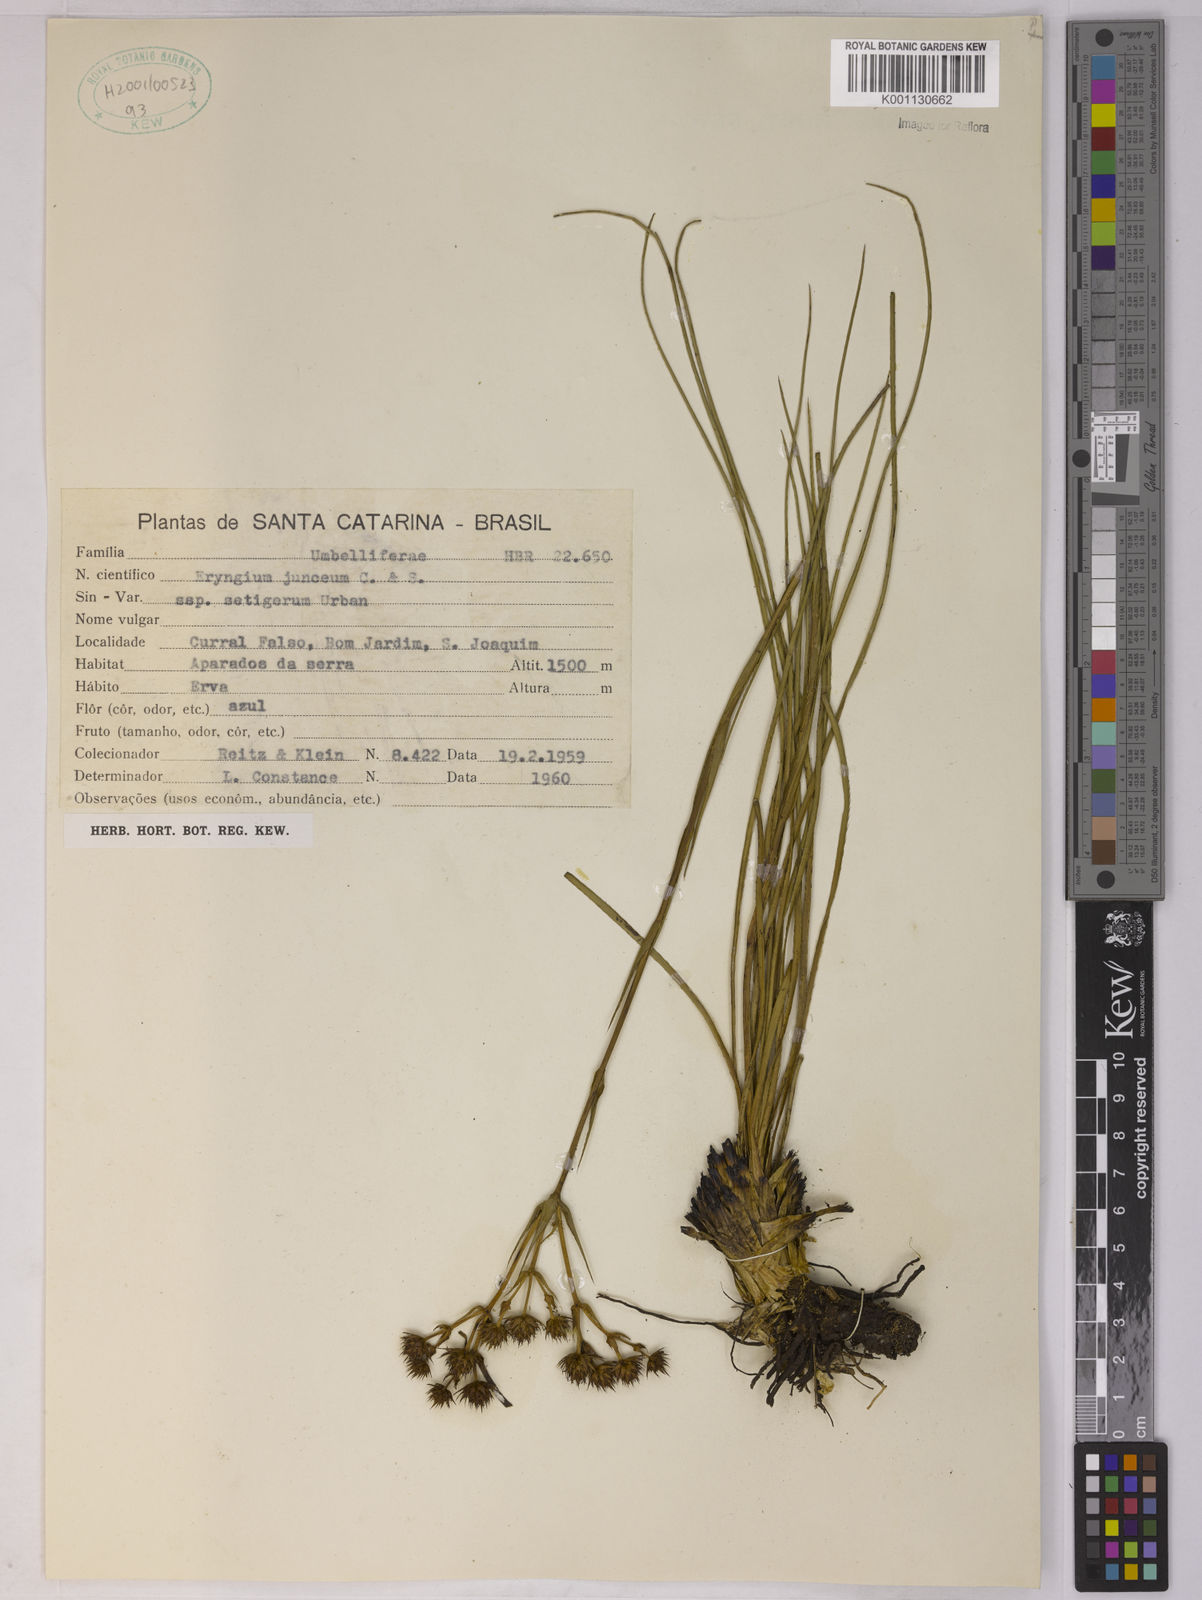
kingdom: Plantae
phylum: Tracheophyta
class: Magnoliopsida
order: Apiales
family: Apiaceae
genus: Eryngium
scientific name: Eryngium junceum
